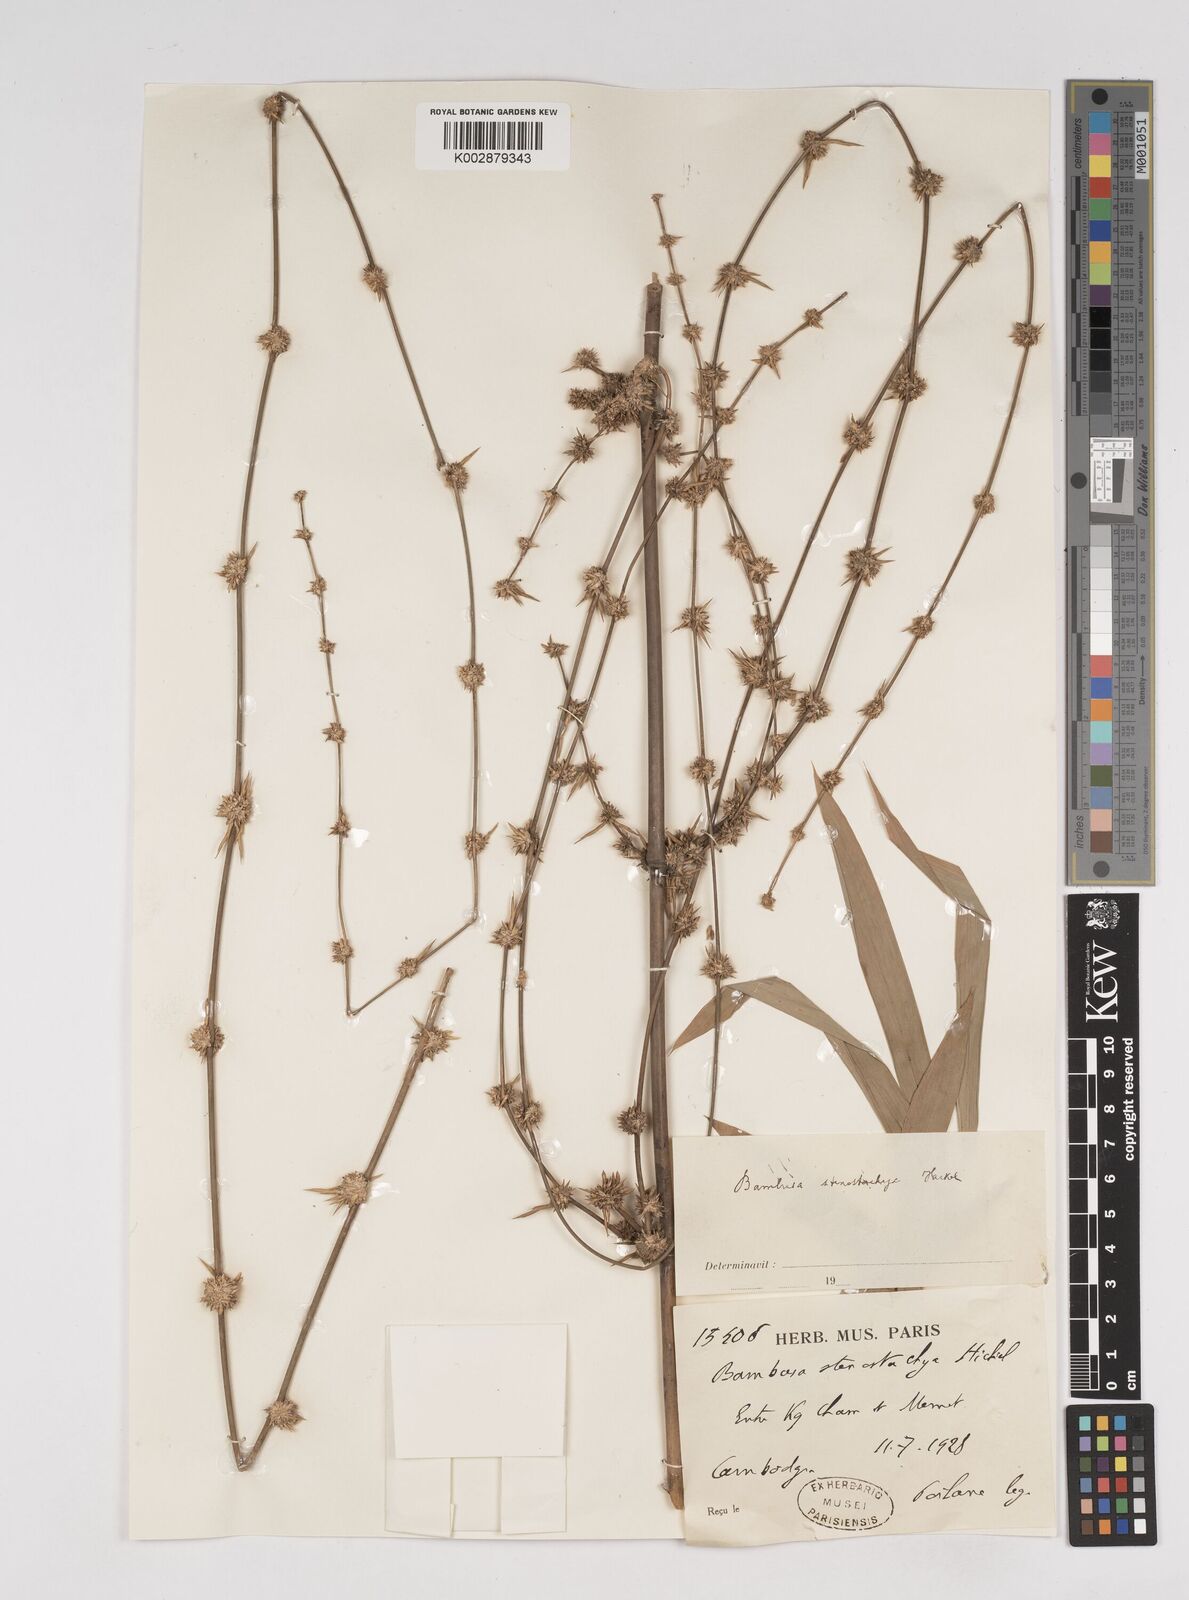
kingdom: Plantae
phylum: Tracheophyta
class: Liliopsida
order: Poales
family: Poaceae
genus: Dendrocalamus
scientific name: Dendrocalamus
